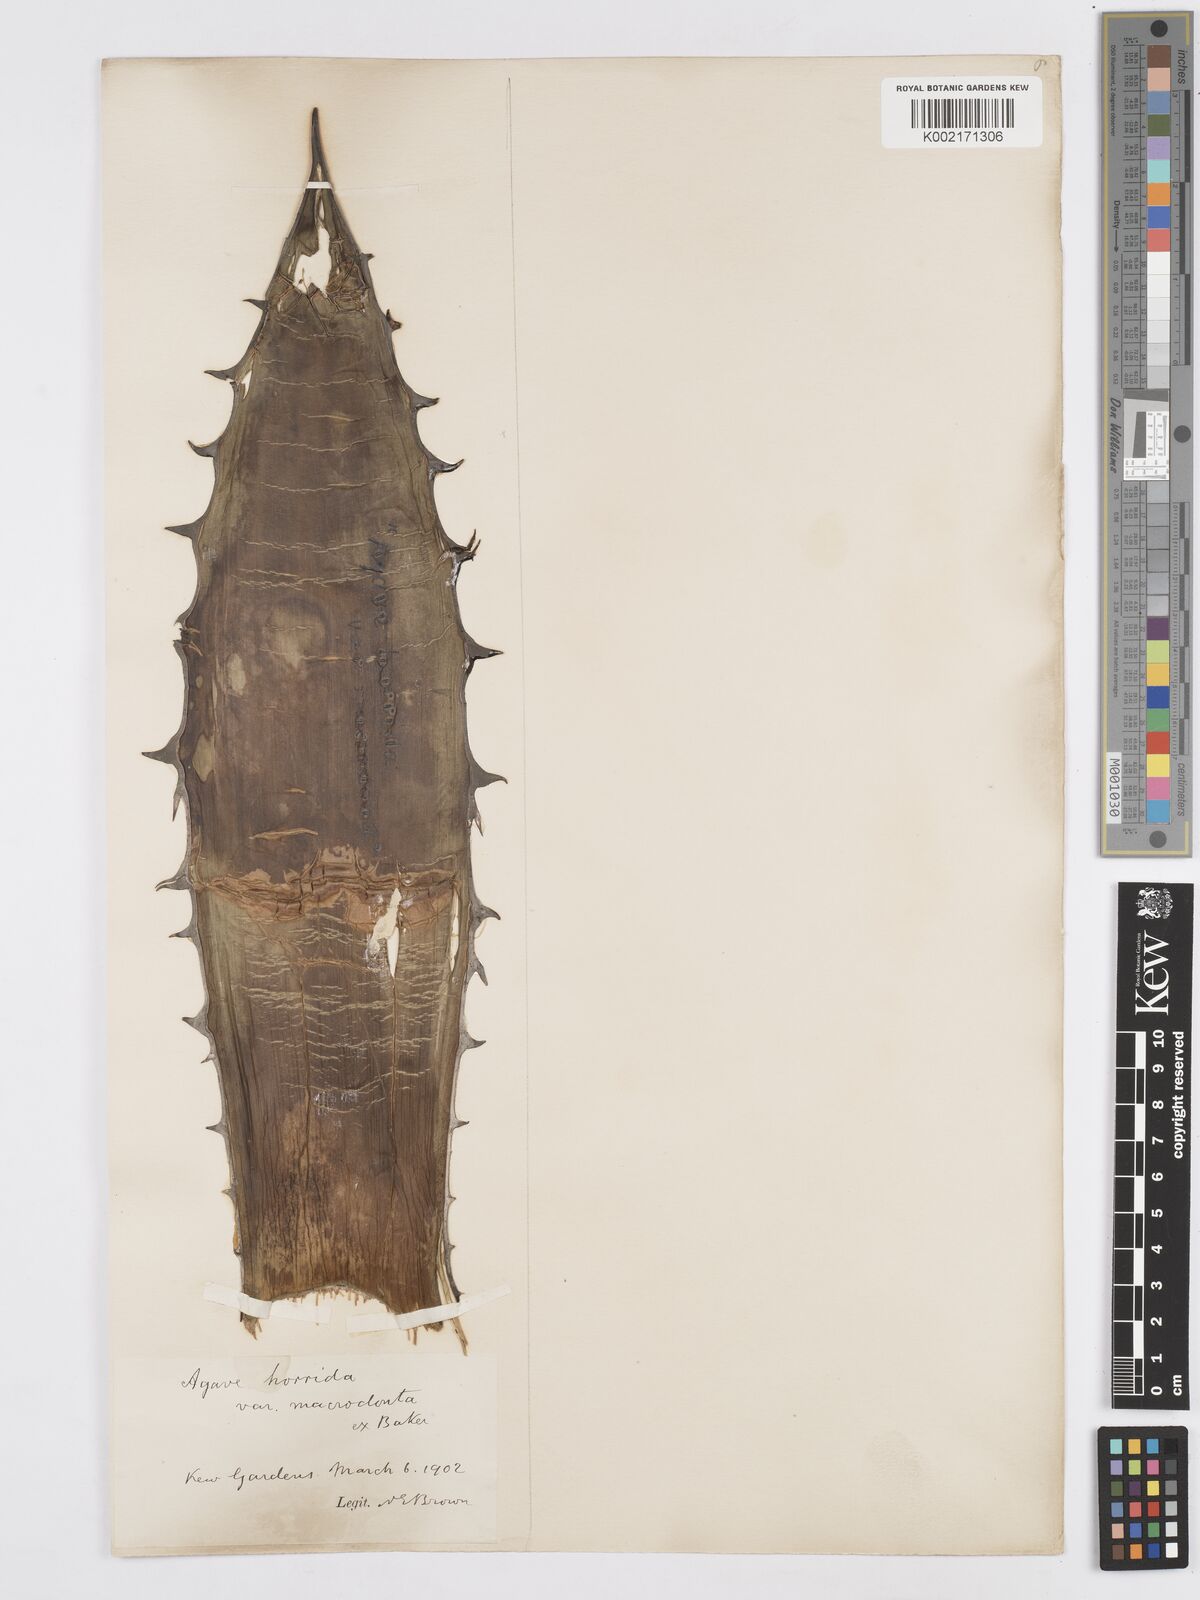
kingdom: Plantae
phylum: Tracheophyta
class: Liliopsida
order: Asparagales
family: Asparagaceae
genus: Agave
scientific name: Agave horrida
